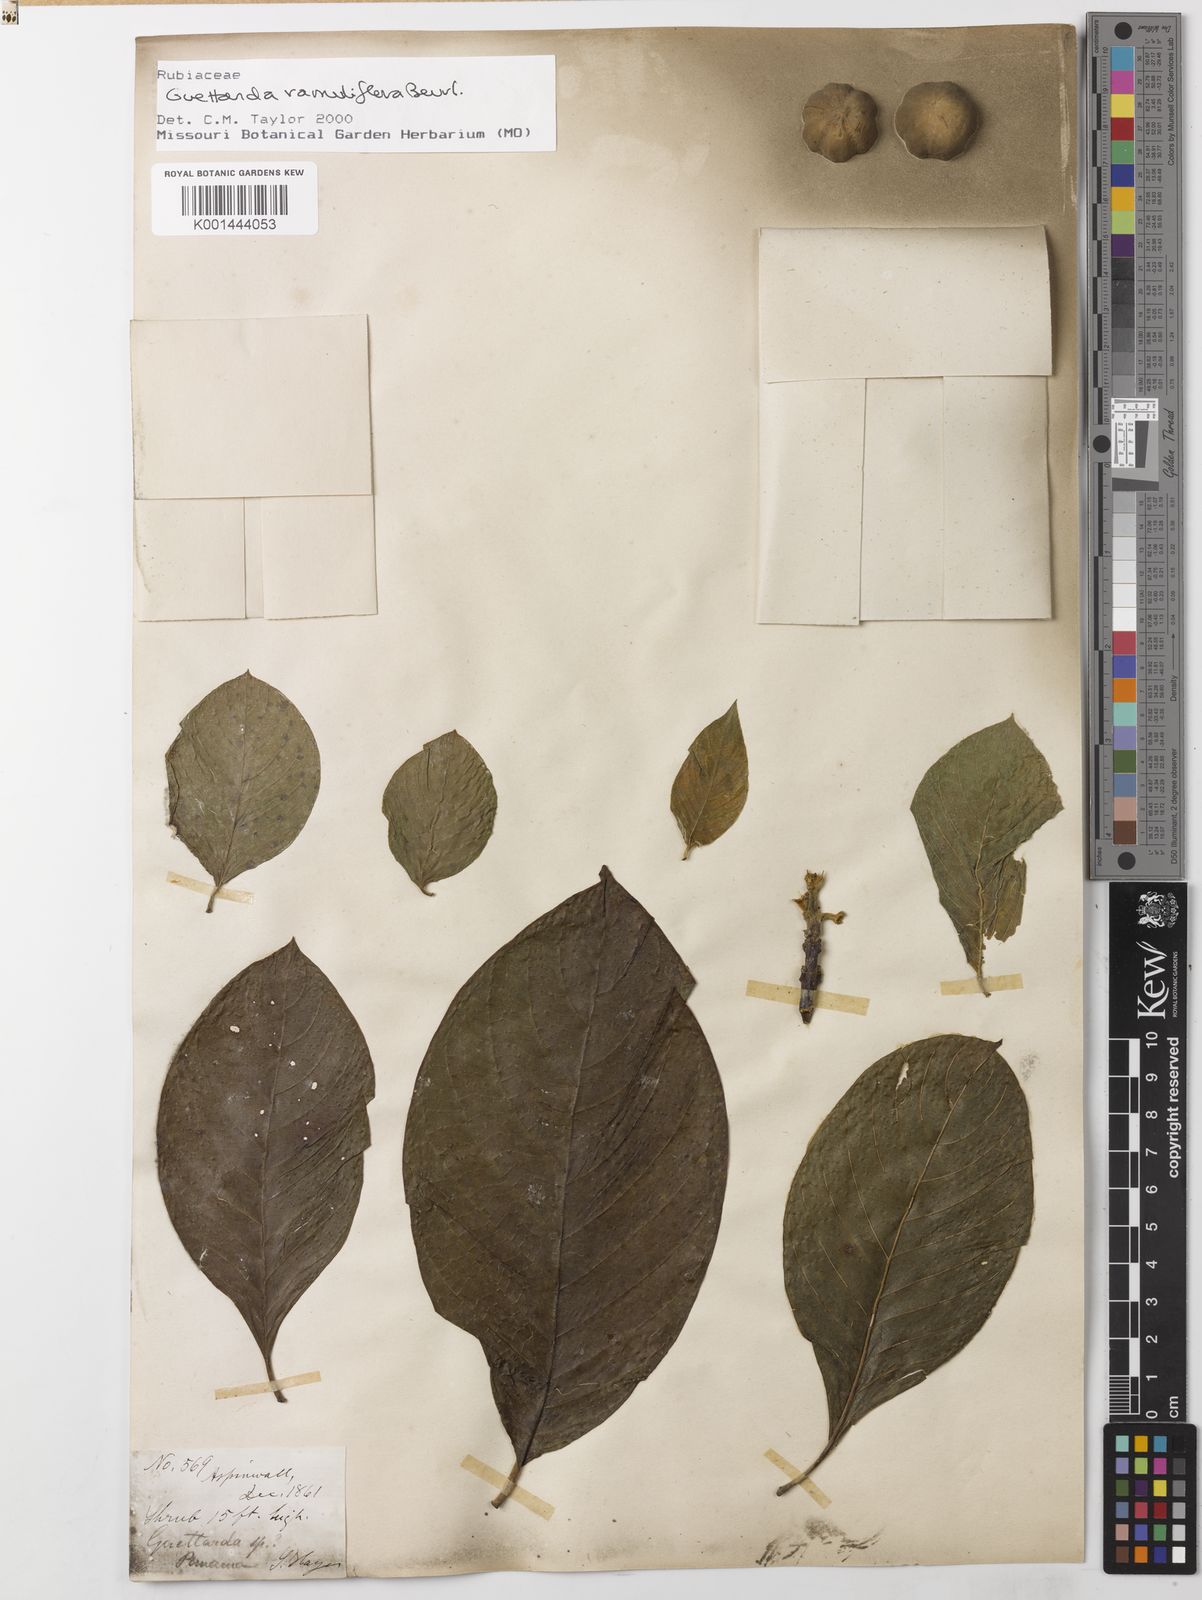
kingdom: Plantae
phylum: Tracheophyta
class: Magnoliopsida
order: Gentianales
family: Rubiaceae
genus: Guettarda
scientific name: Guettarda ramuliflora
